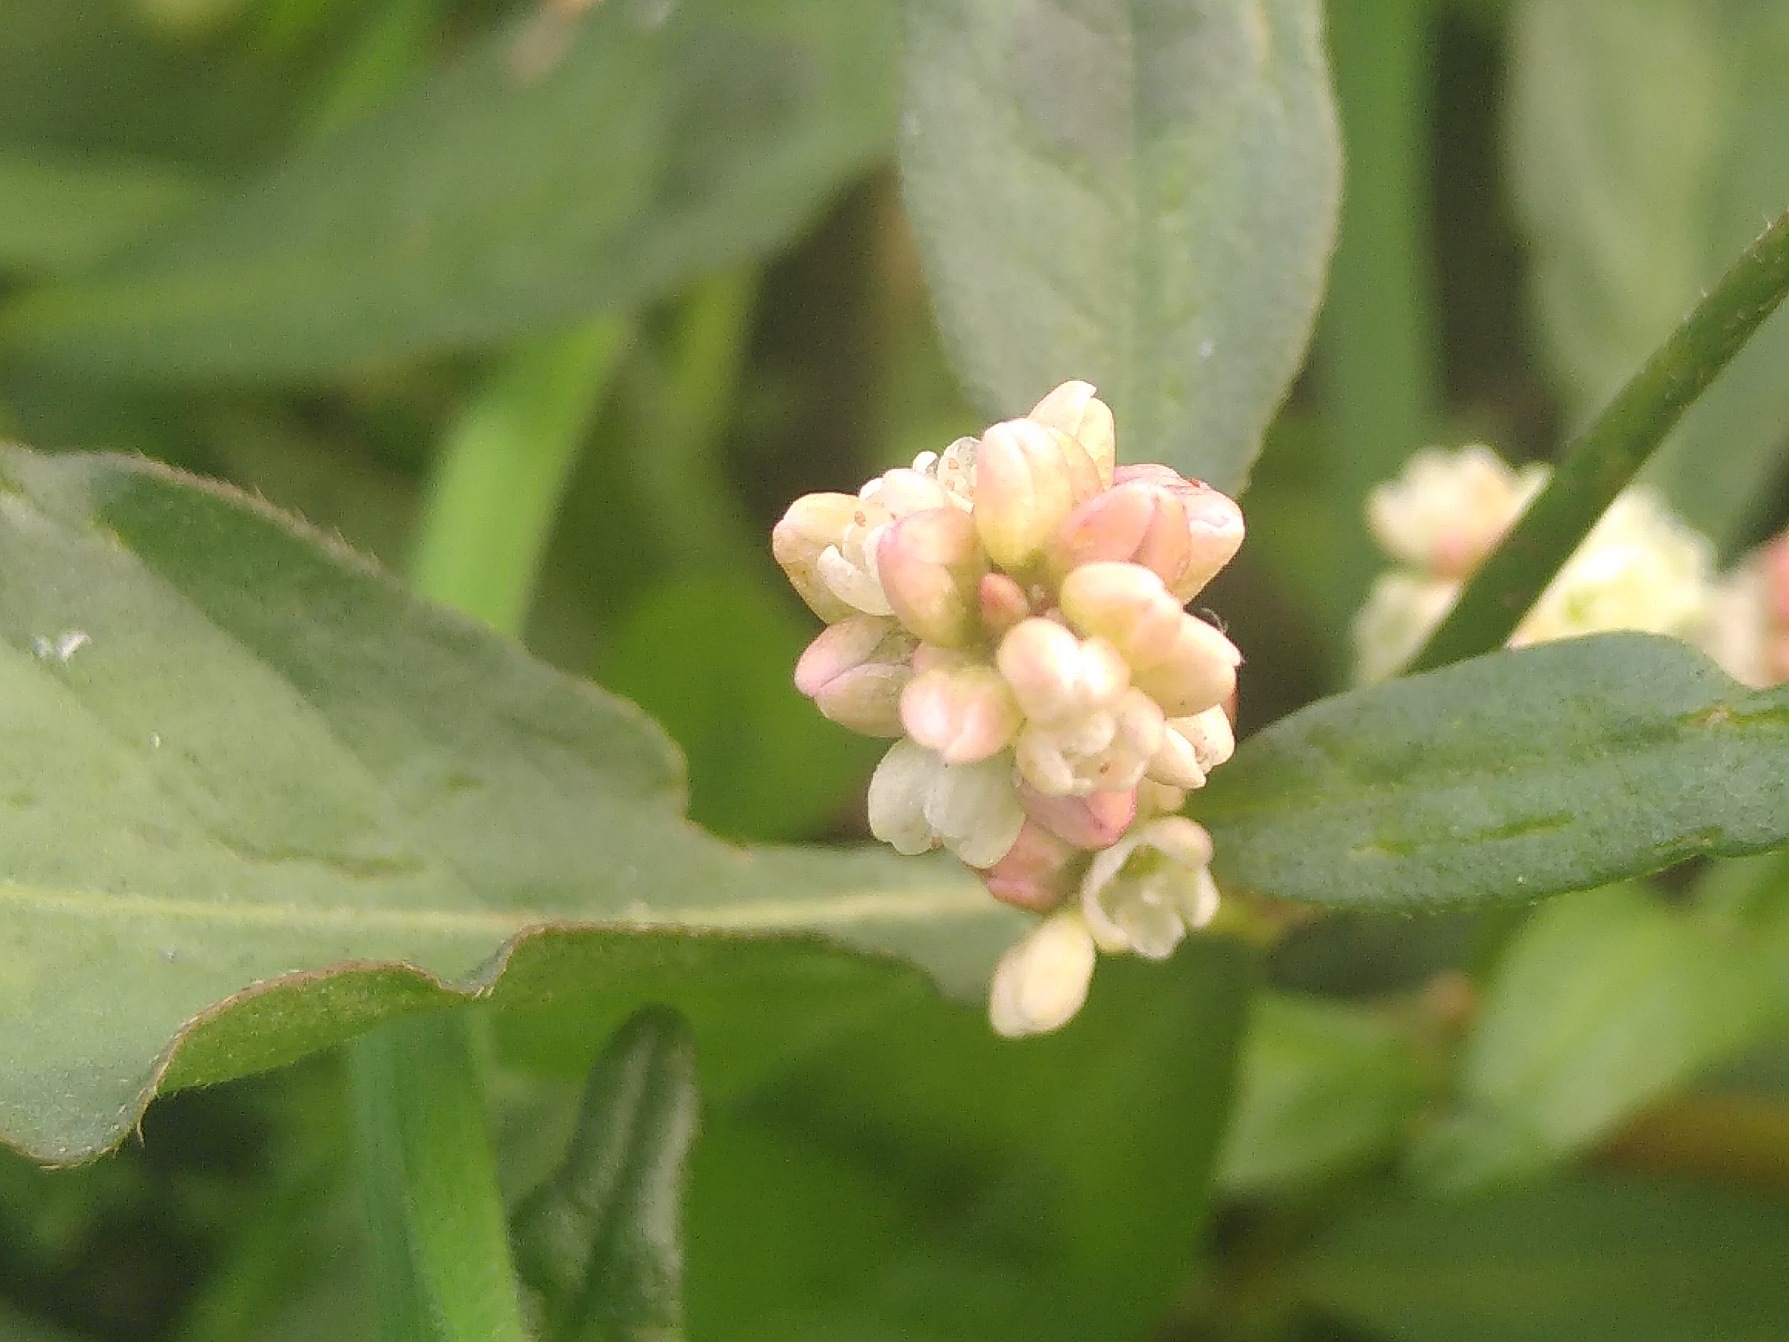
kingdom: Plantae
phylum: Tracheophyta
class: Magnoliopsida
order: Caryophyllales
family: Polygonaceae
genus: Persicaria
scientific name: Persicaria lapathifolia
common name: Bleg pileurt
